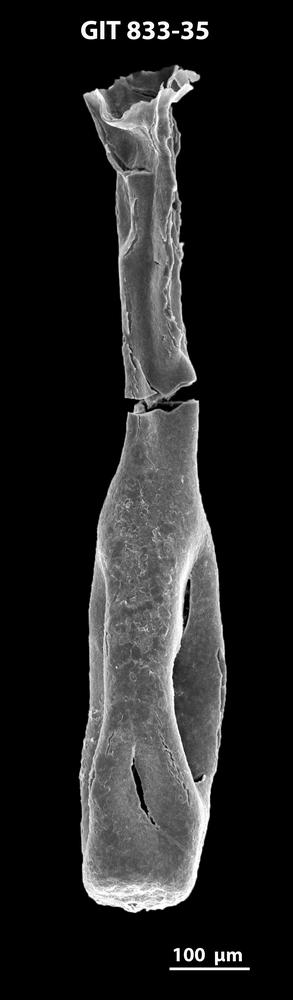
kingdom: Animalia
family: Lagenochitinidae
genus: Lagenochitina
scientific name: Lagenochitina megaesthonica
